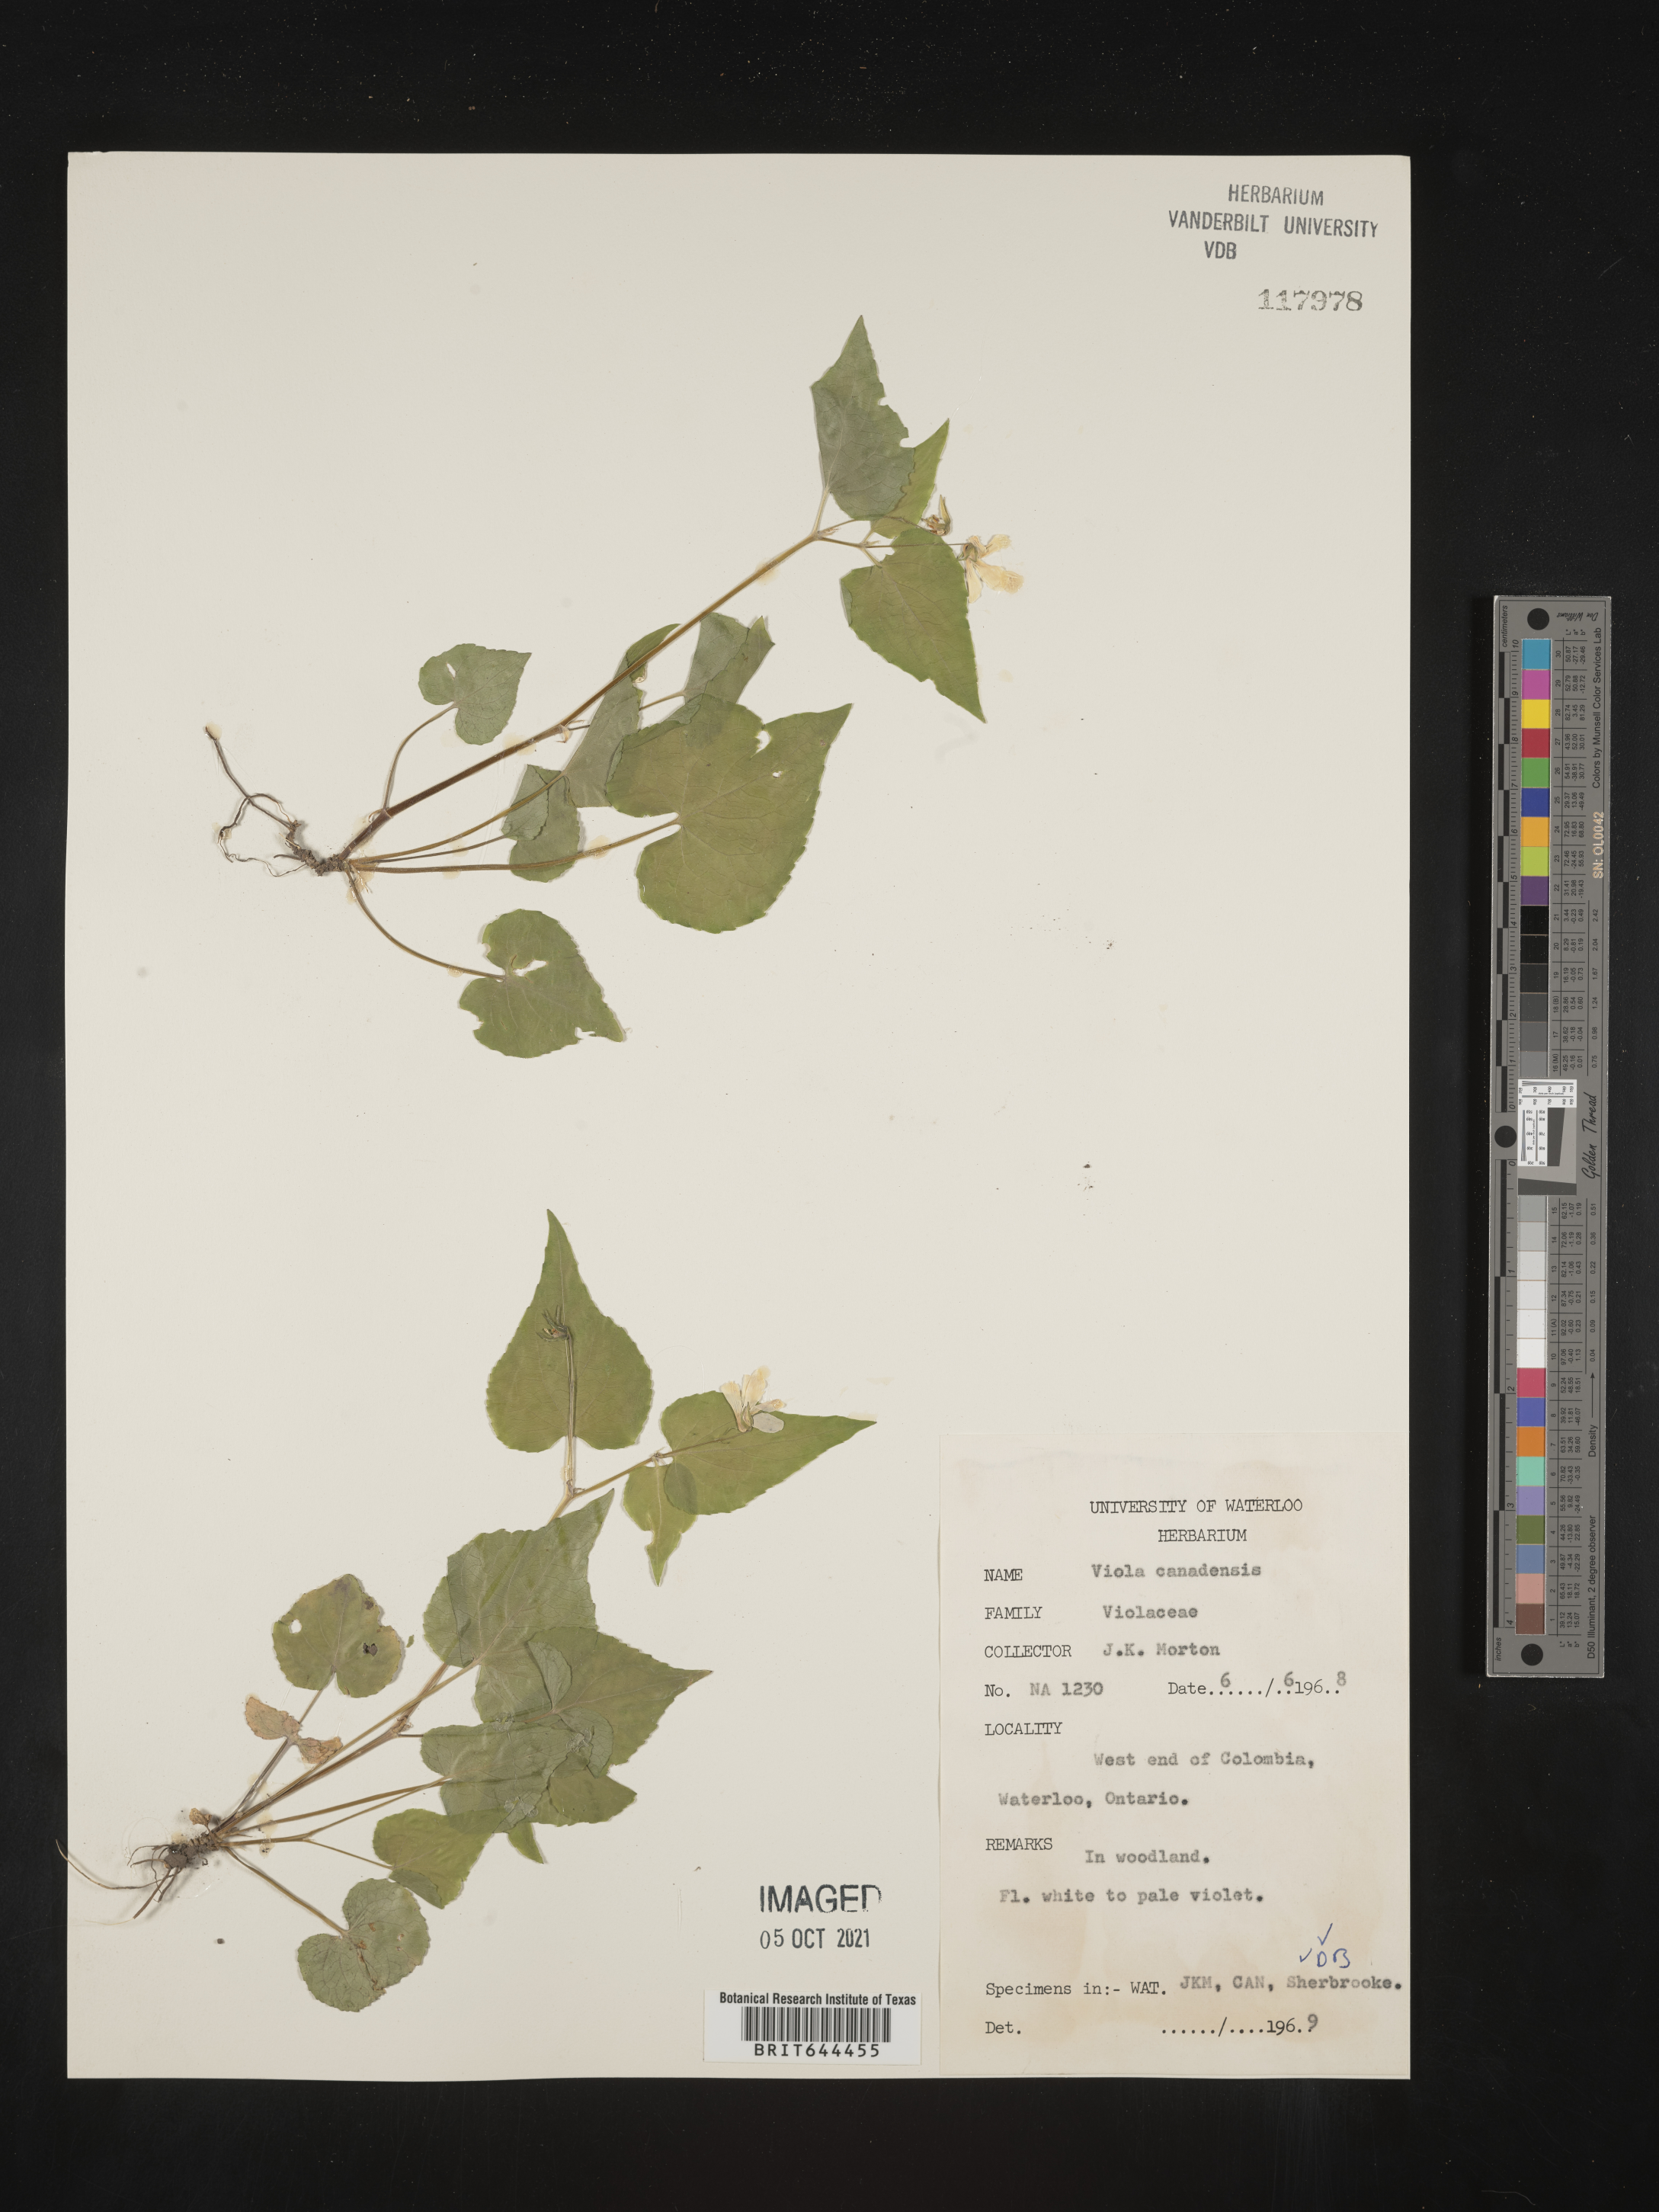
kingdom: Plantae
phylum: Tracheophyta
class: Magnoliopsida
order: Malpighiales
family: Violaceae
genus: Viola
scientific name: Viola
